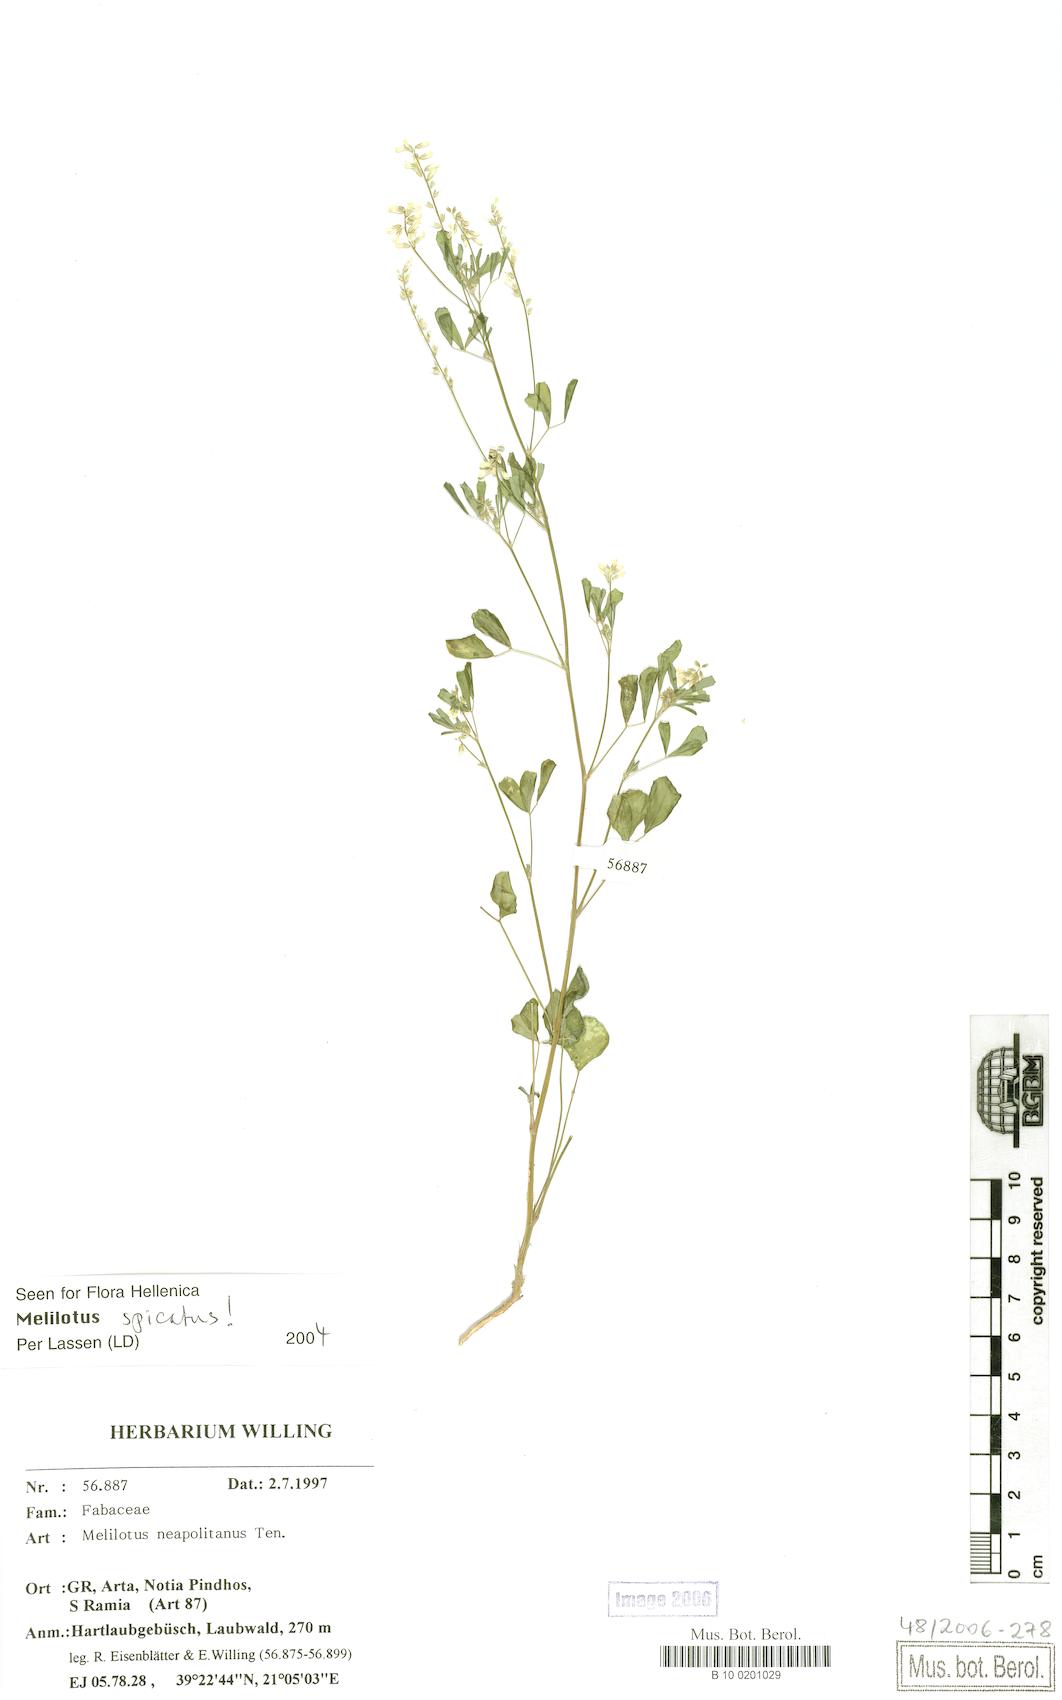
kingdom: Plantae
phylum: Tracheophyta
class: Magnoliopsida
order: Fabales
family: Fabaceae
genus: Melilotus
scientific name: Melilotus neapolitanus
